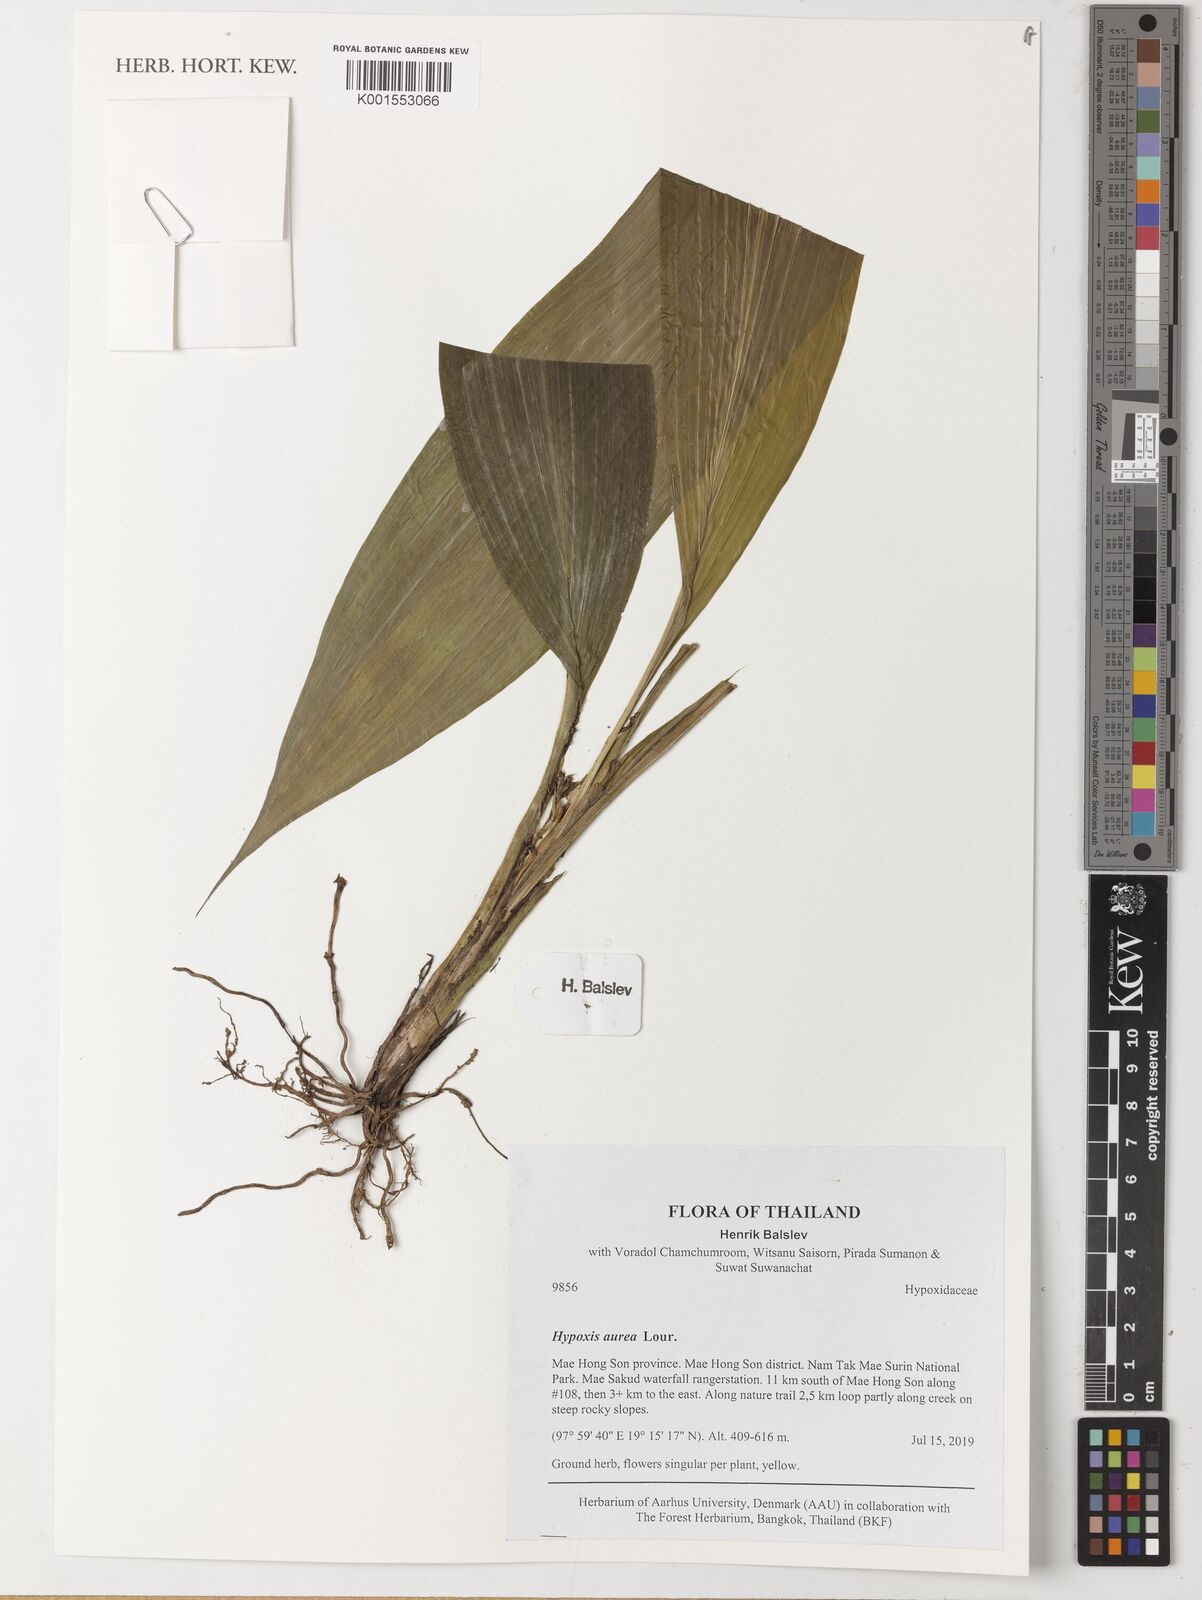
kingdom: Plantae
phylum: Tracheophyta
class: Liliopsida
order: Asparagales
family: Hypoxidaceae
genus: Hypoxis
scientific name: Hypoxis aurea
